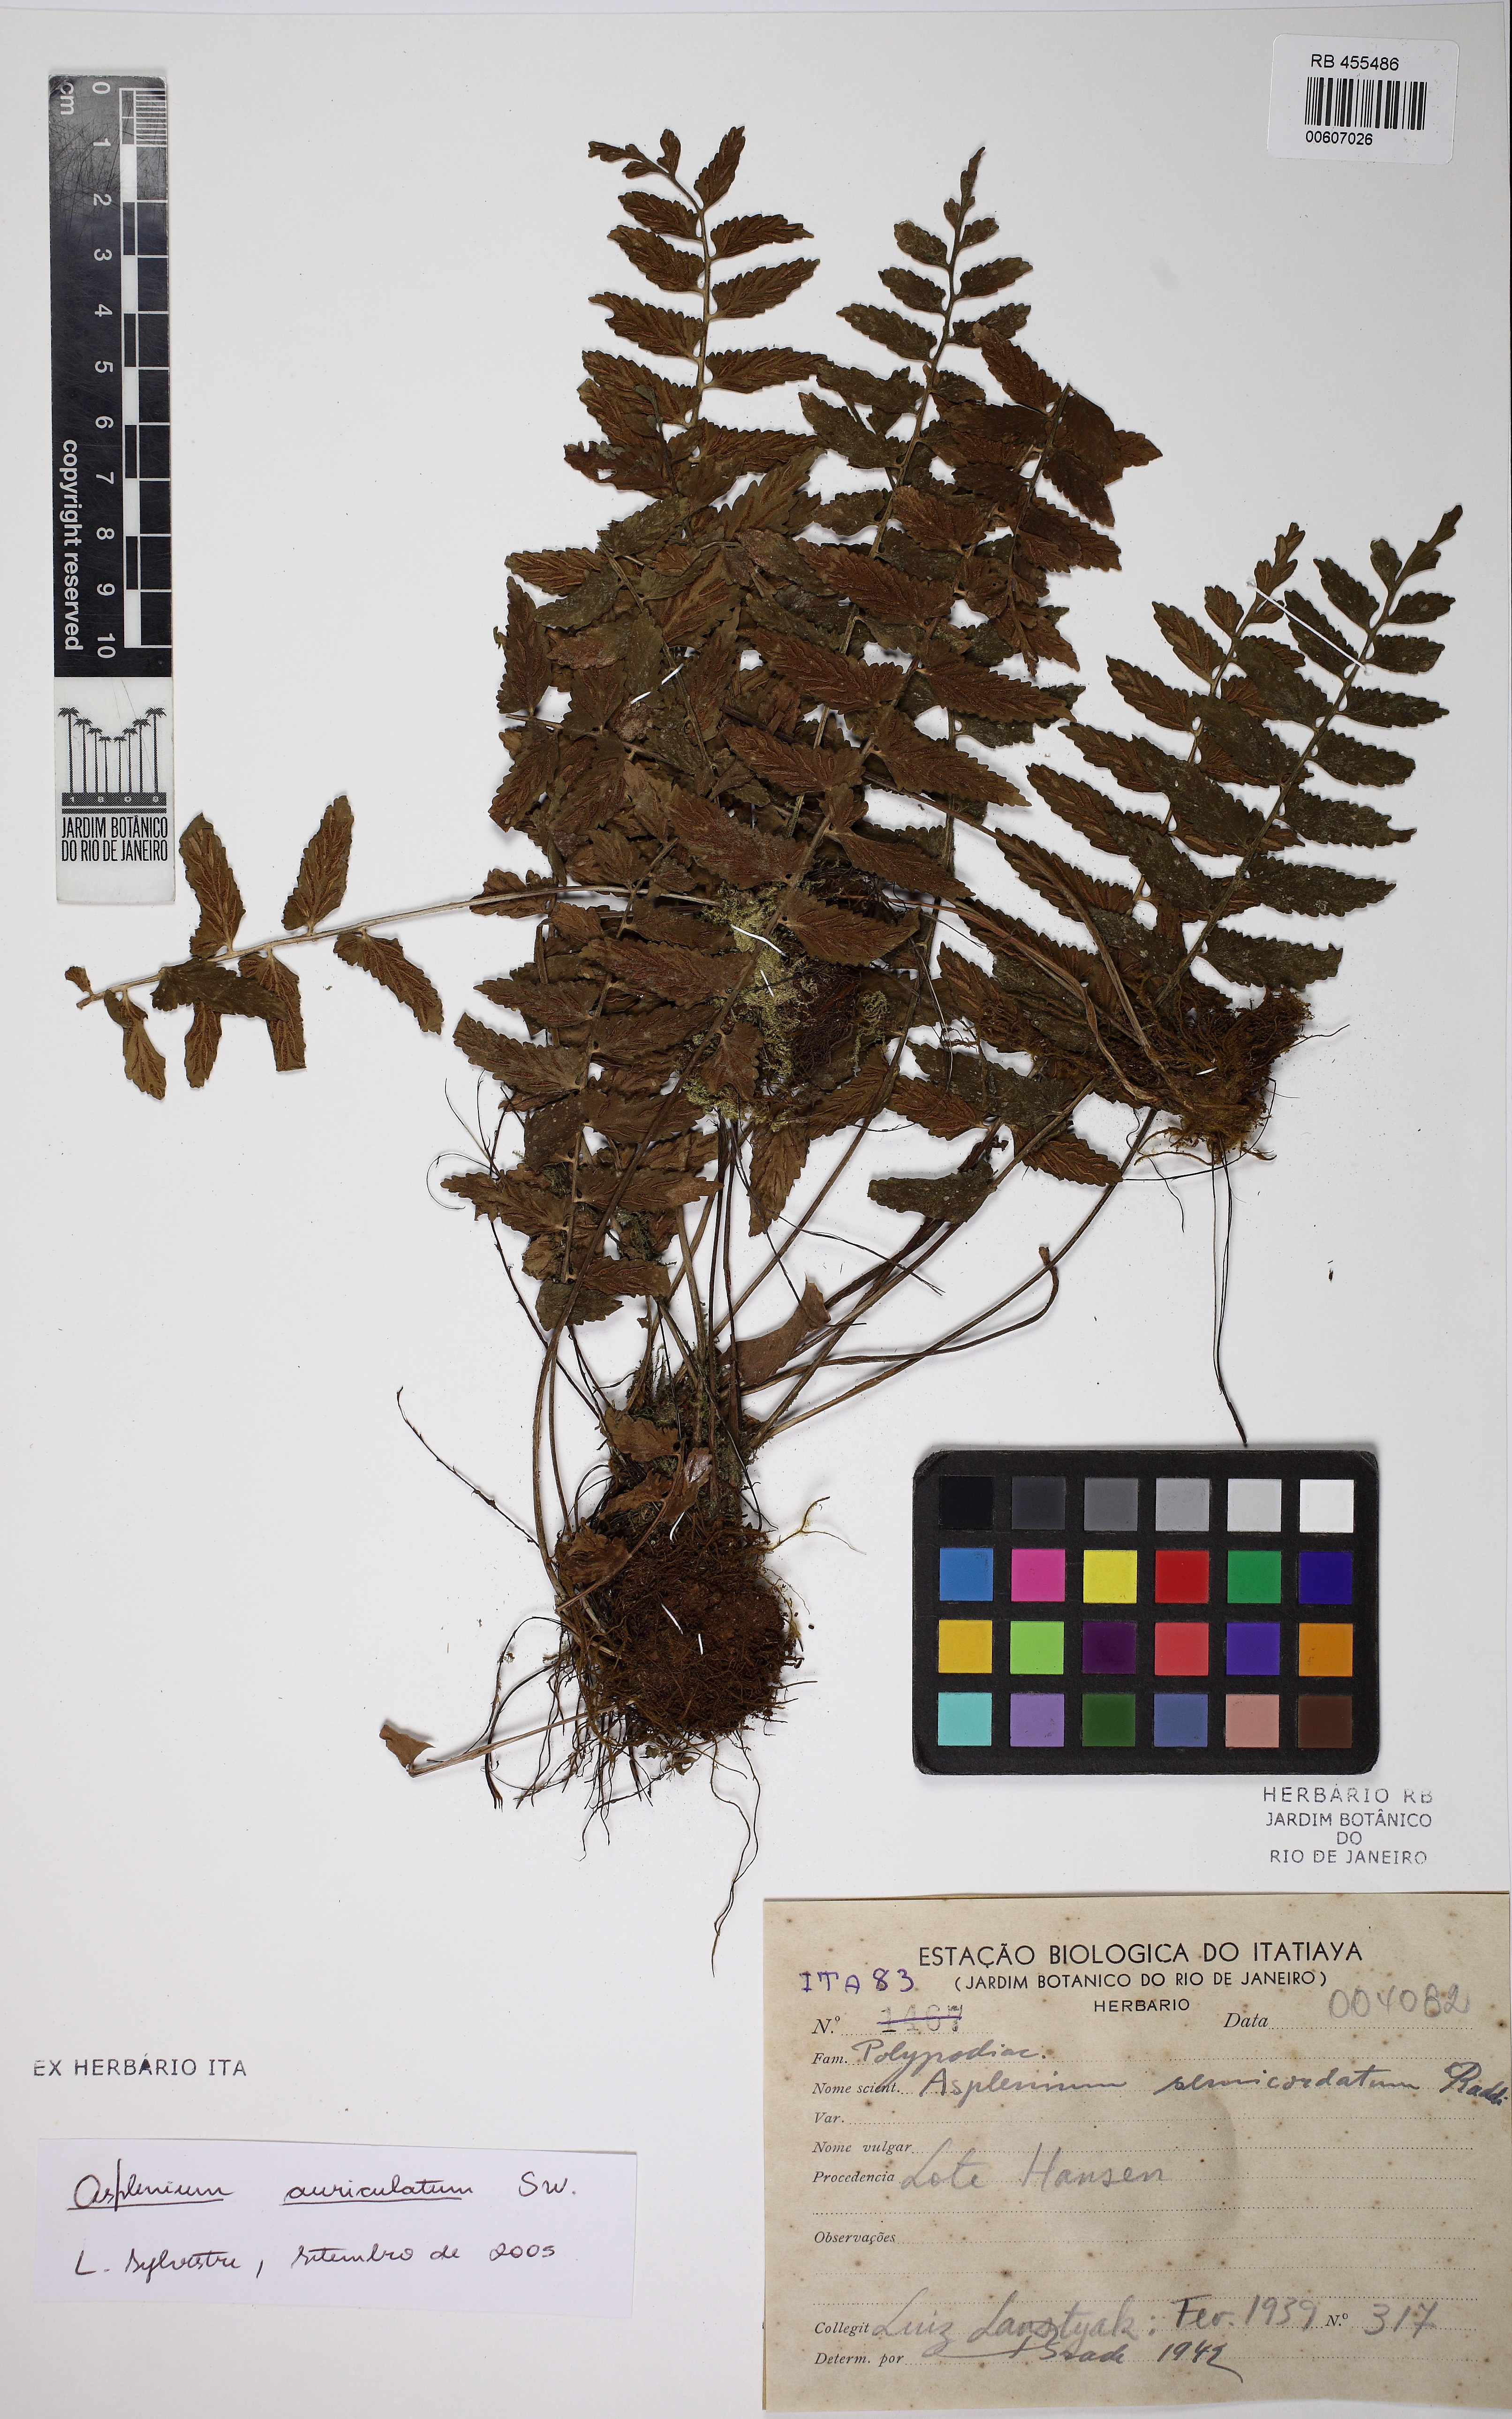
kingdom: Plantae
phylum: Tracheophyta
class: Polypodiopsida
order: Polypodiales
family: Aspleniaceae
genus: Asplenium
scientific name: Asplenium auriculatum
